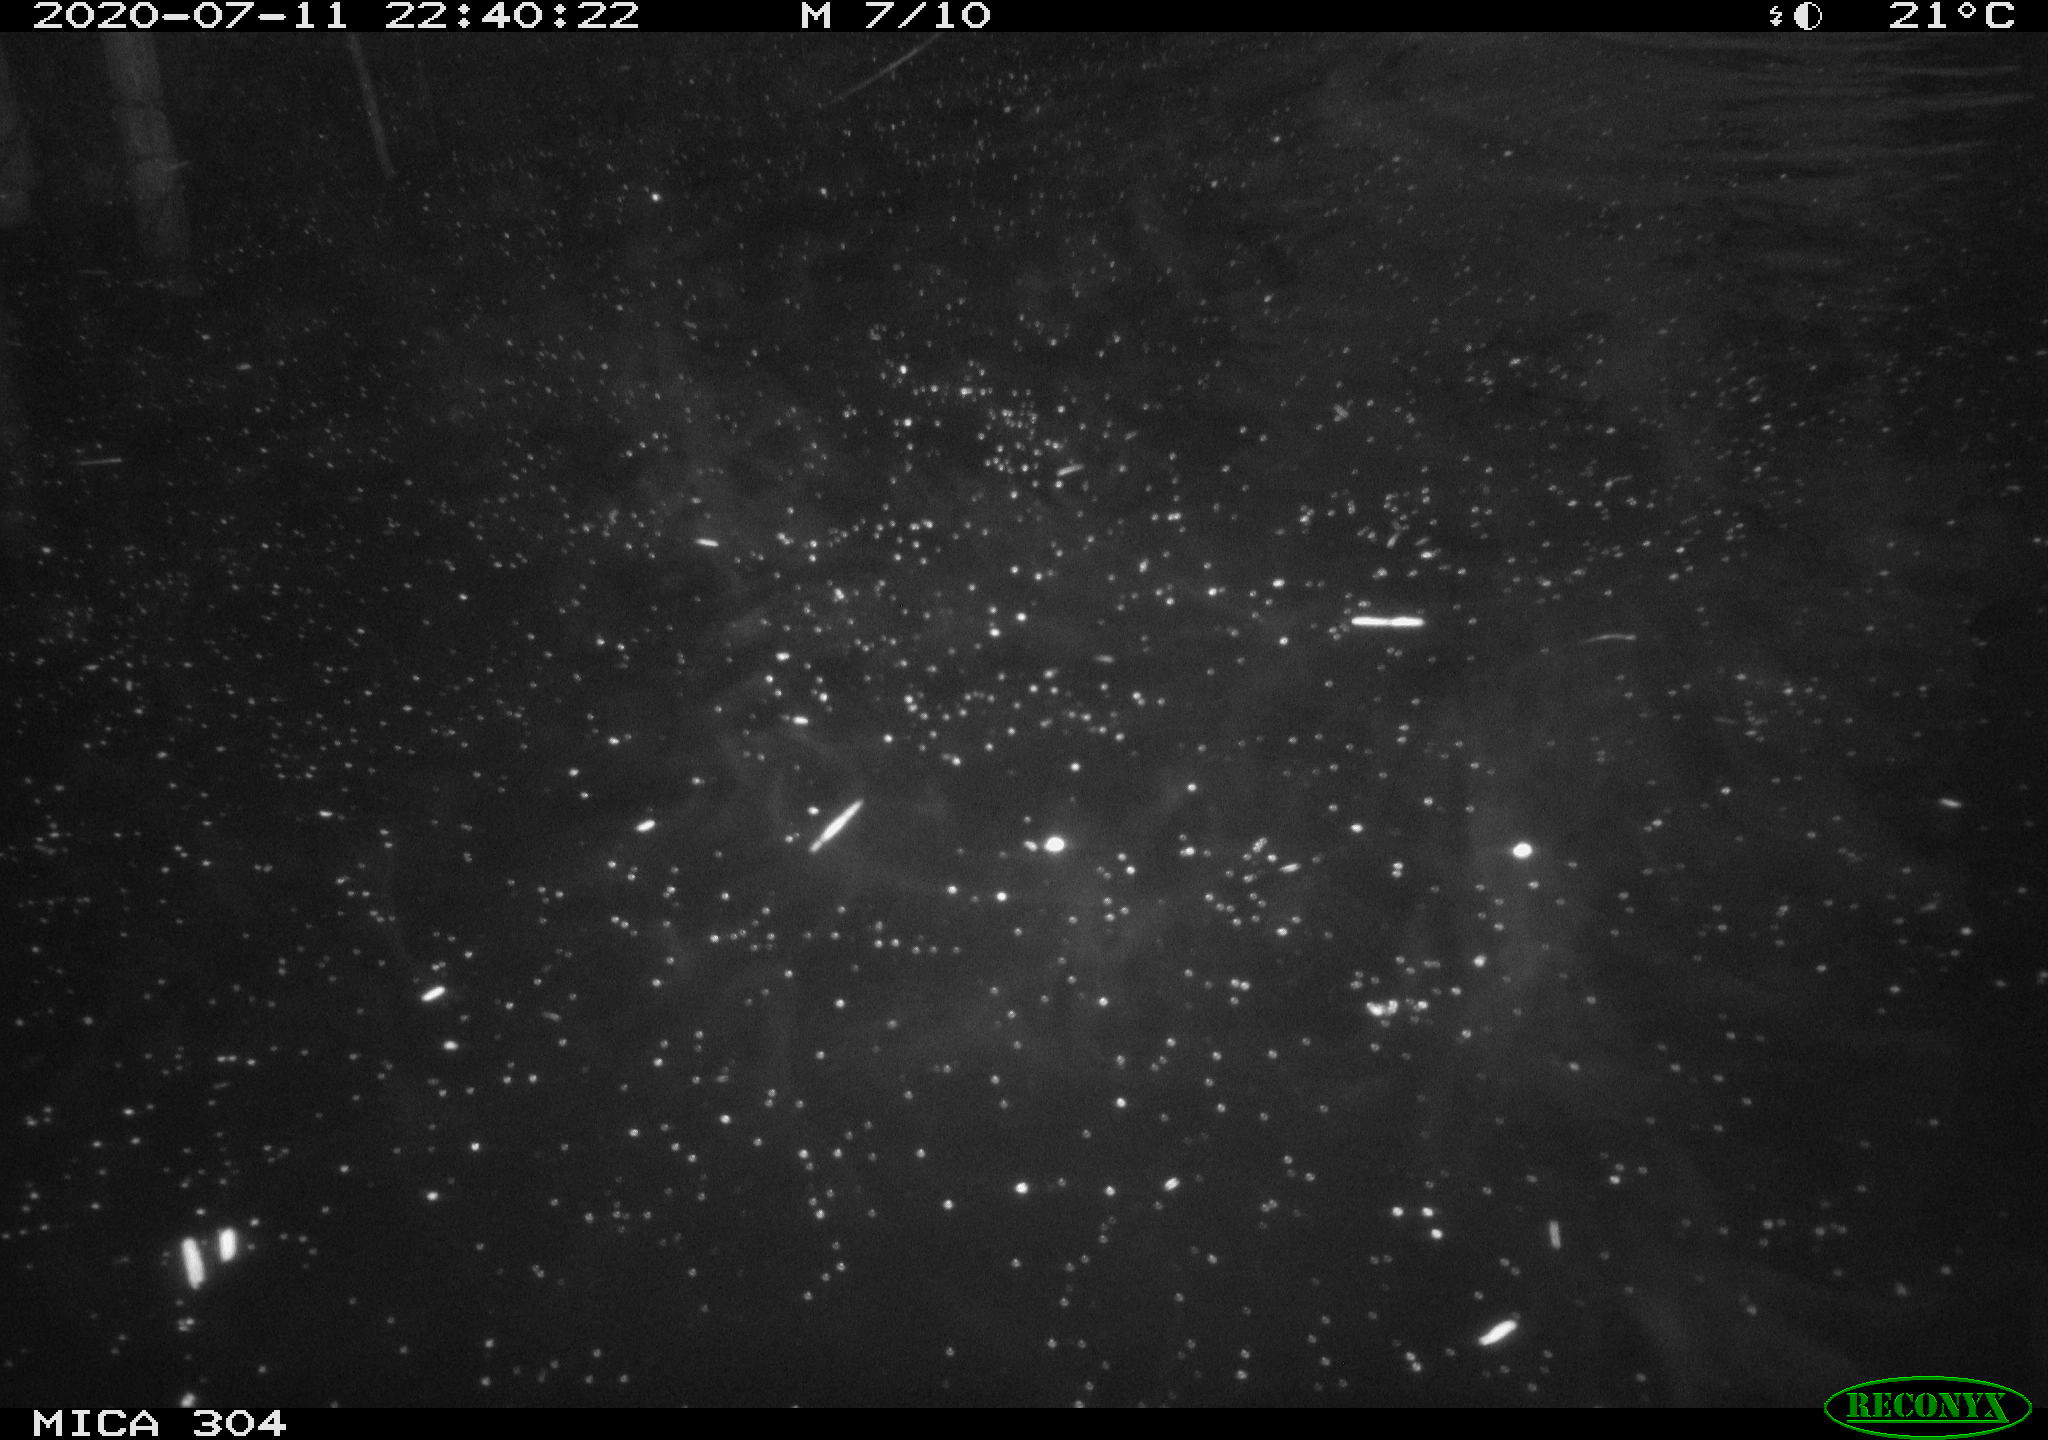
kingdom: Animalia
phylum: Chordata
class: Mammalia
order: Rodentia
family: Cricetidae
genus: Ondatra
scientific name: Ondatra zibethicus
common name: Muskrat
